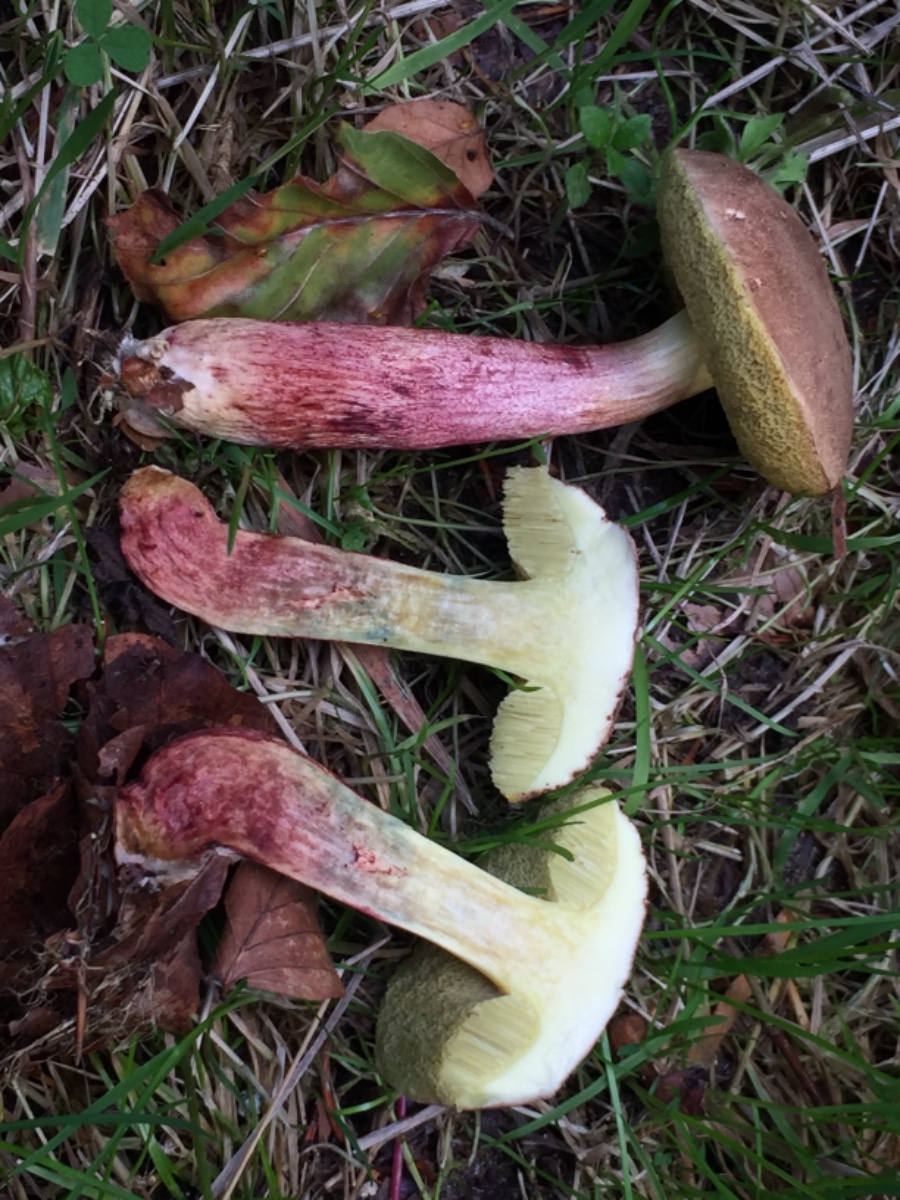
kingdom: Fungi
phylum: Basidiomycota
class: Agaricomycetes
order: Boletales
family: Boletaceae
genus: Xerocomellus
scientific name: Xerocomellus cisalpinus
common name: finsprukken rørhat
